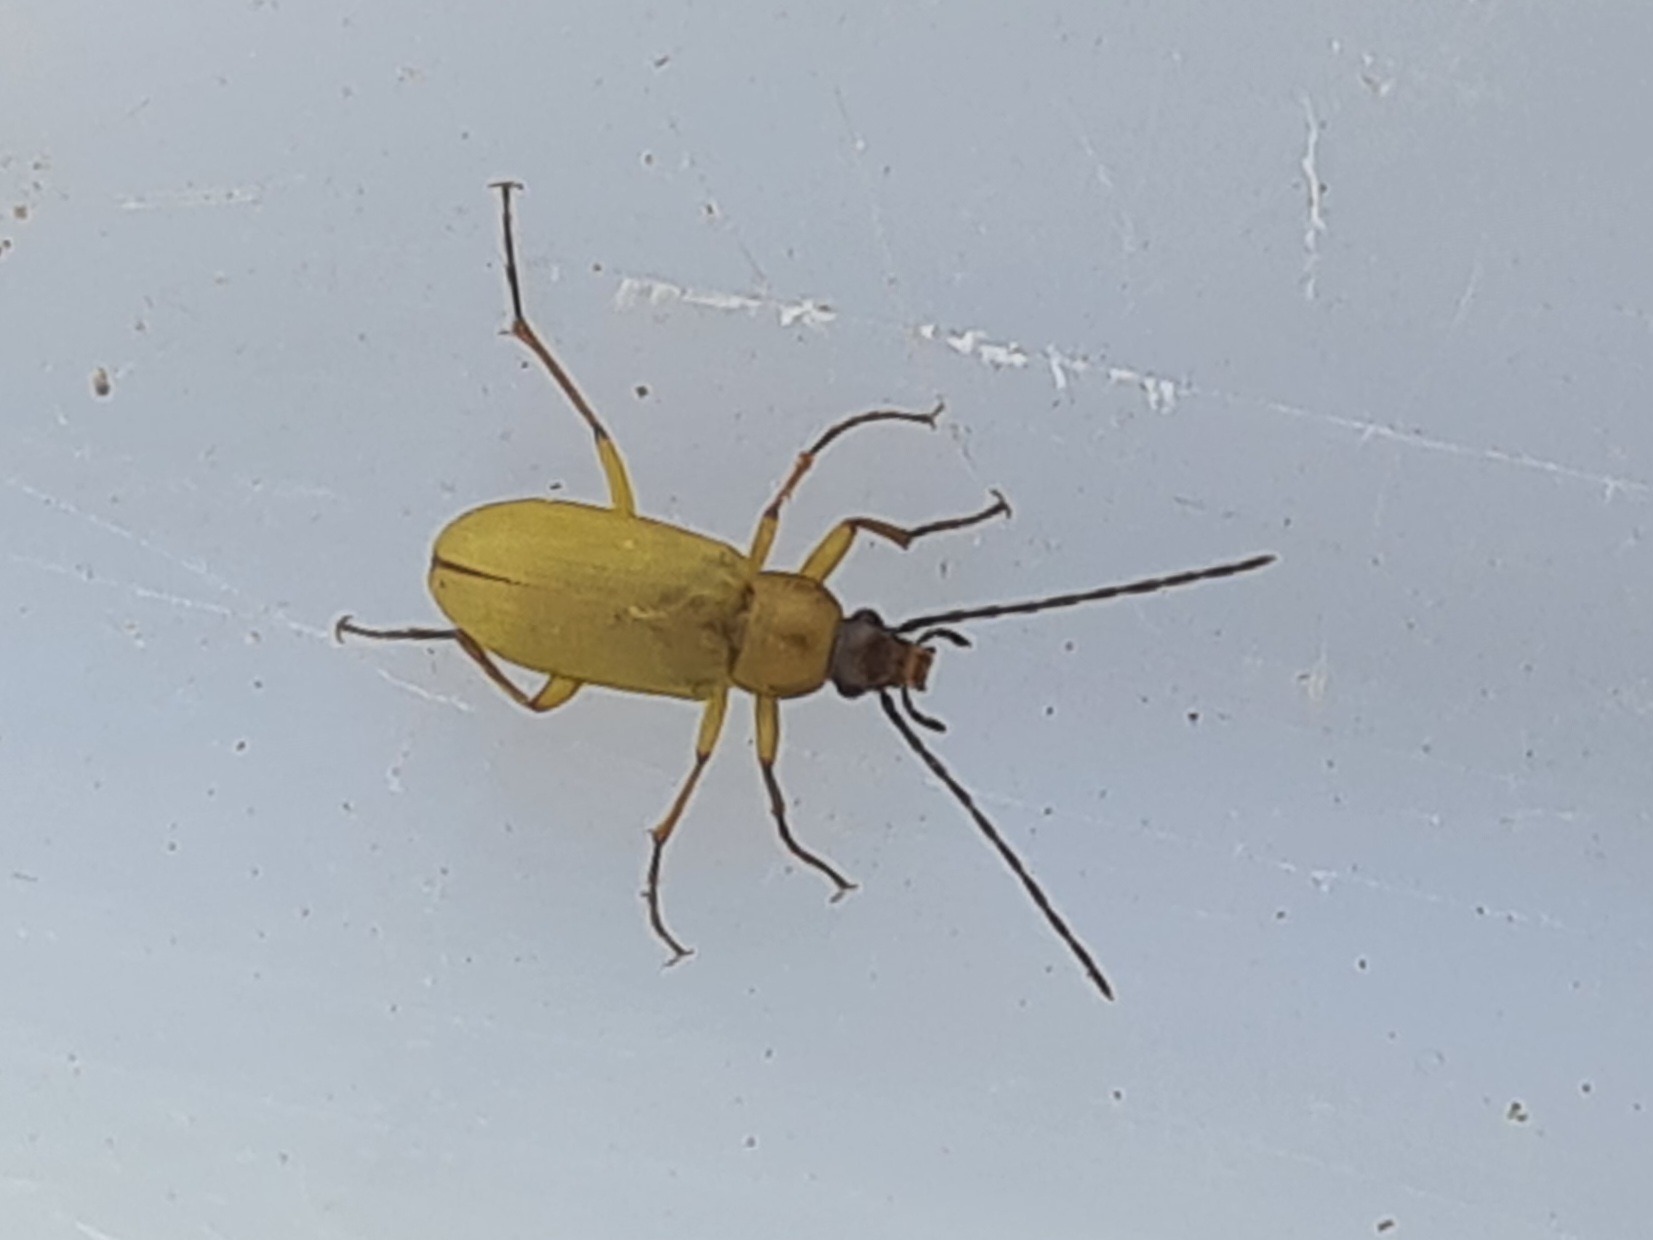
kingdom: Animalia
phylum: Arthropoda
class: Insecta
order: Coleoptera
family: Tenebrionidae
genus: Cteniopus
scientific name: Cteniopus sulphureus
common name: Svovlgul skyggebille
